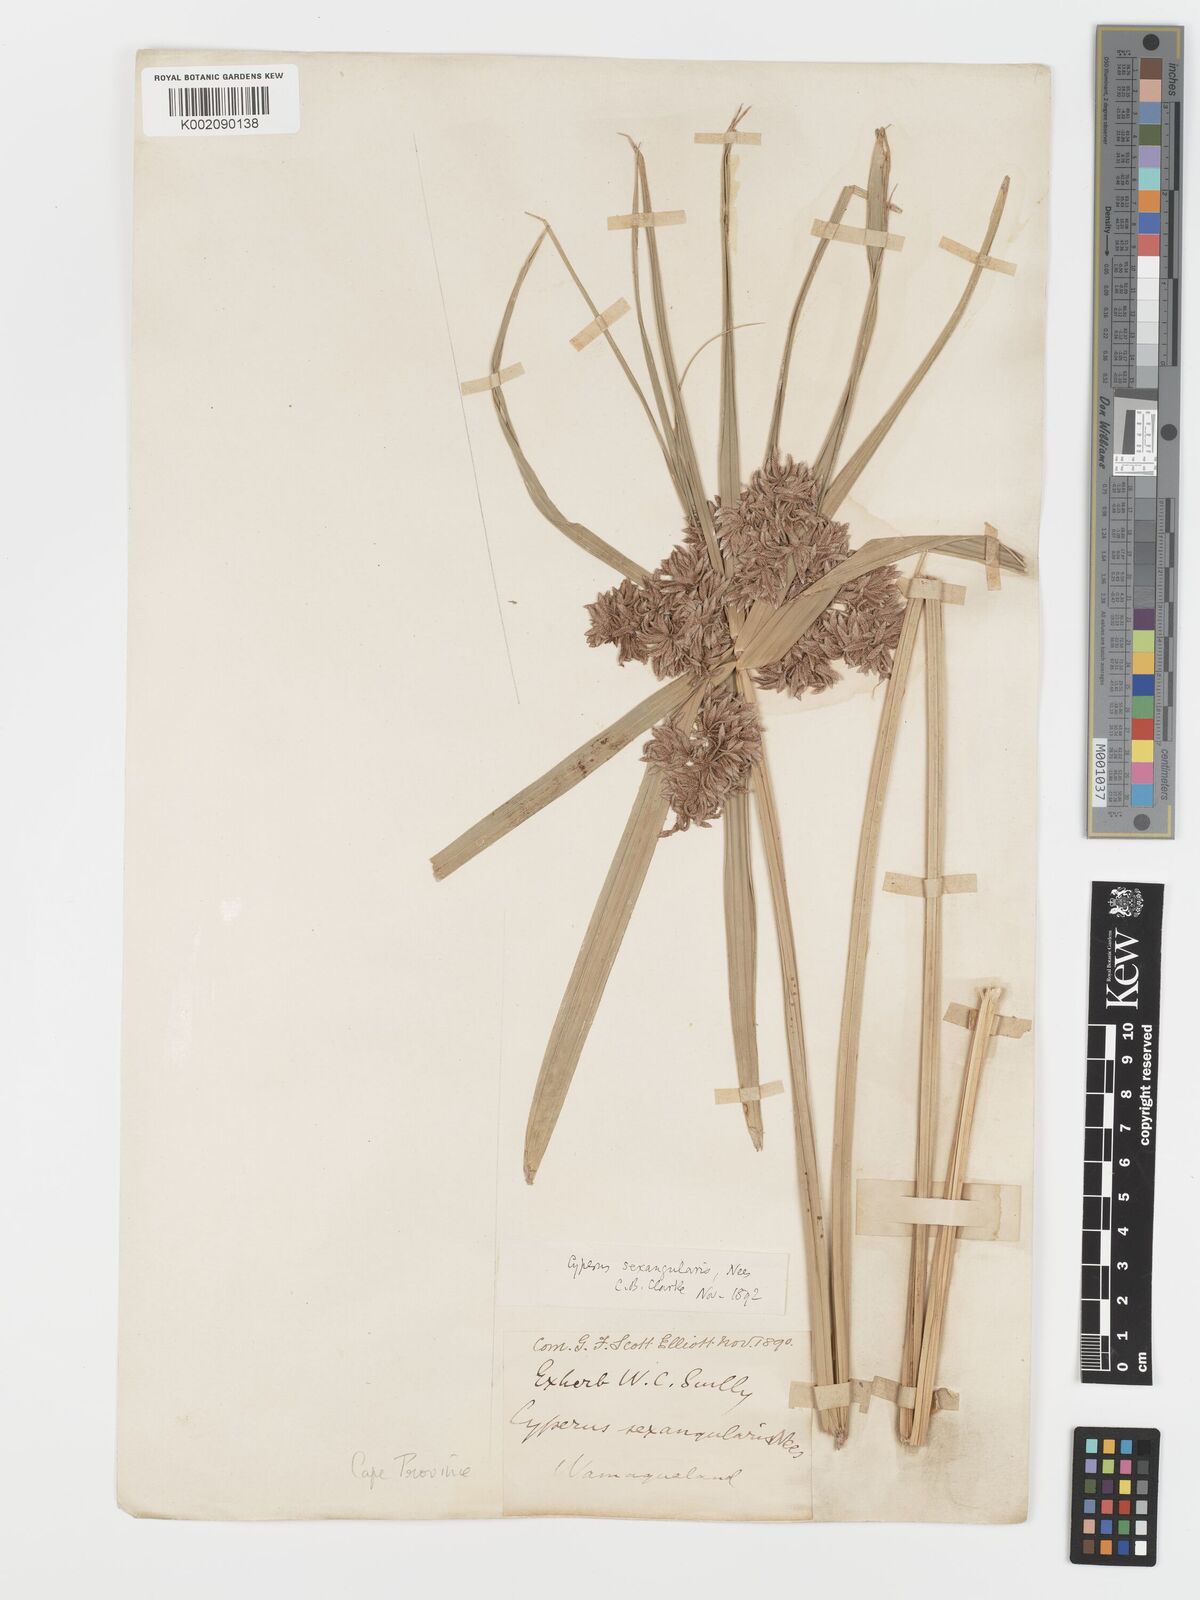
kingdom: Plantae
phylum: Tracheophyta
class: Liliopsida
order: Poales
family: Cyperaceae
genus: Cyperus
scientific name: Cyperus sexangularis
